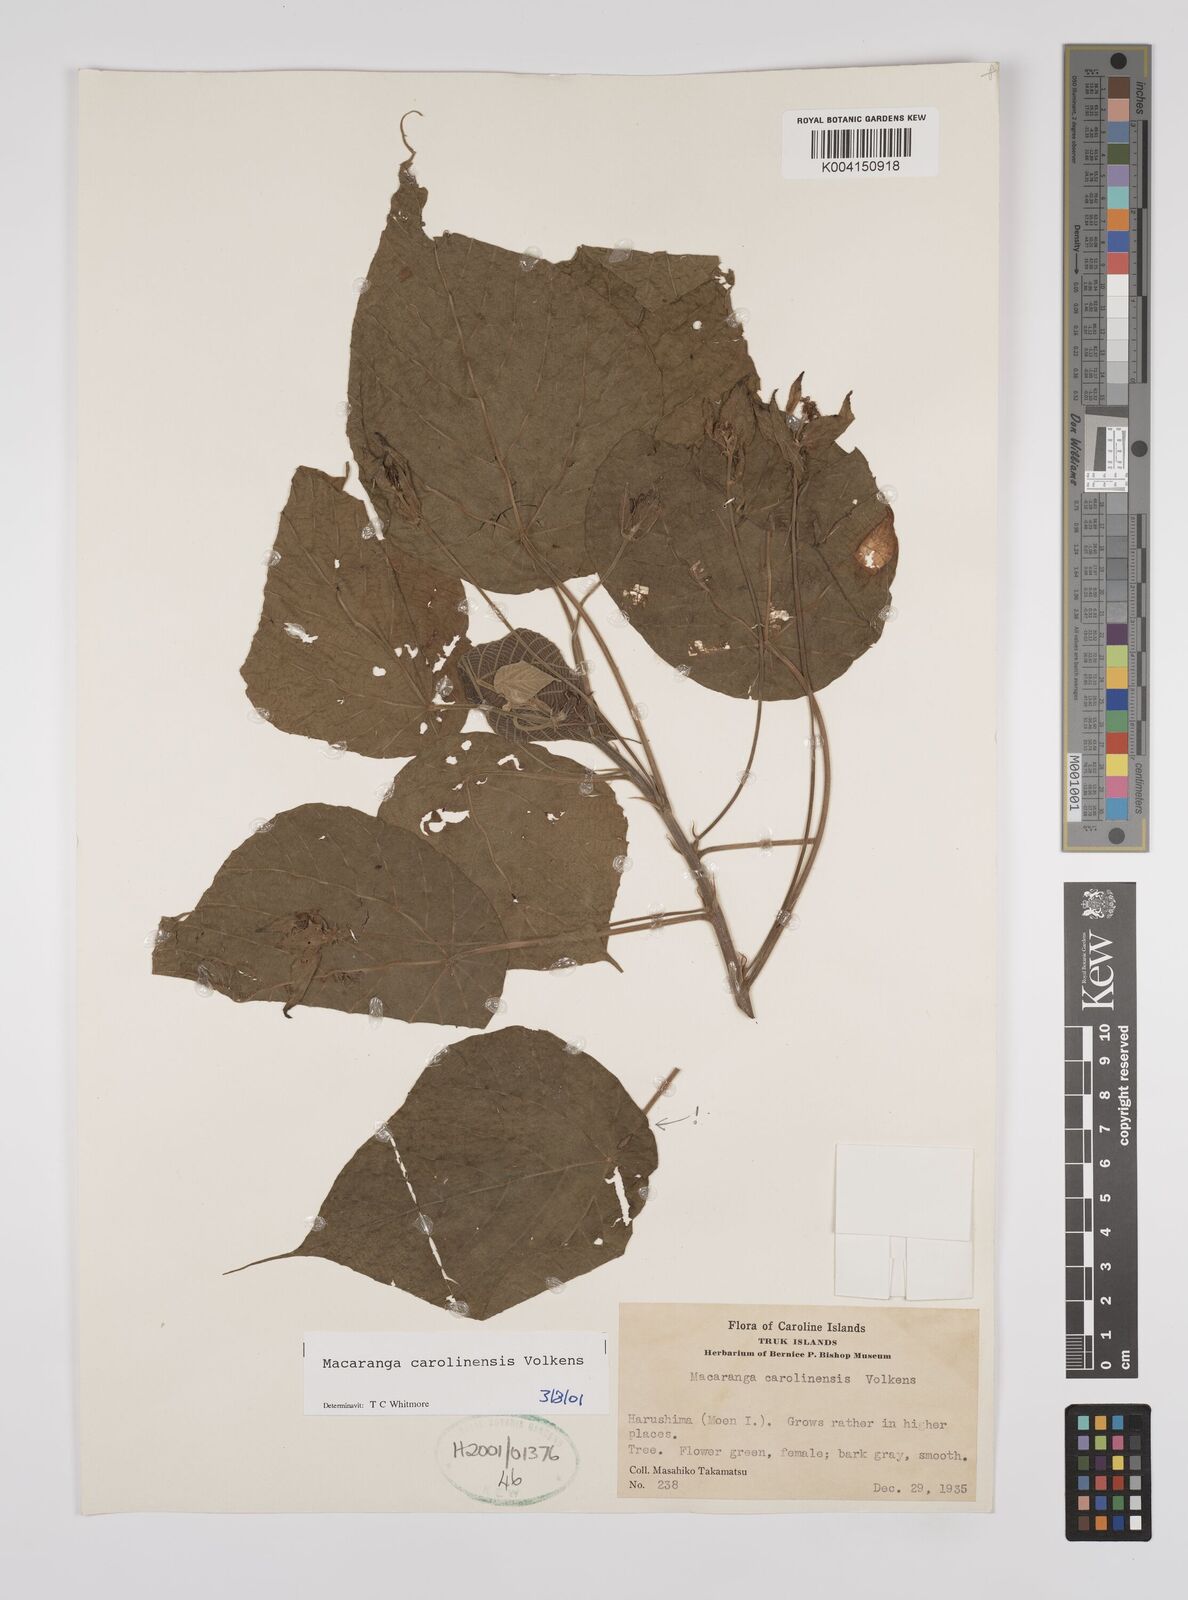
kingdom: Plantae
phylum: Tracheophyta
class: Magnoliopsida
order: Malpighiales
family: Euphorbiaceae
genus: Macaranga
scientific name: Macaranga carolinensis
